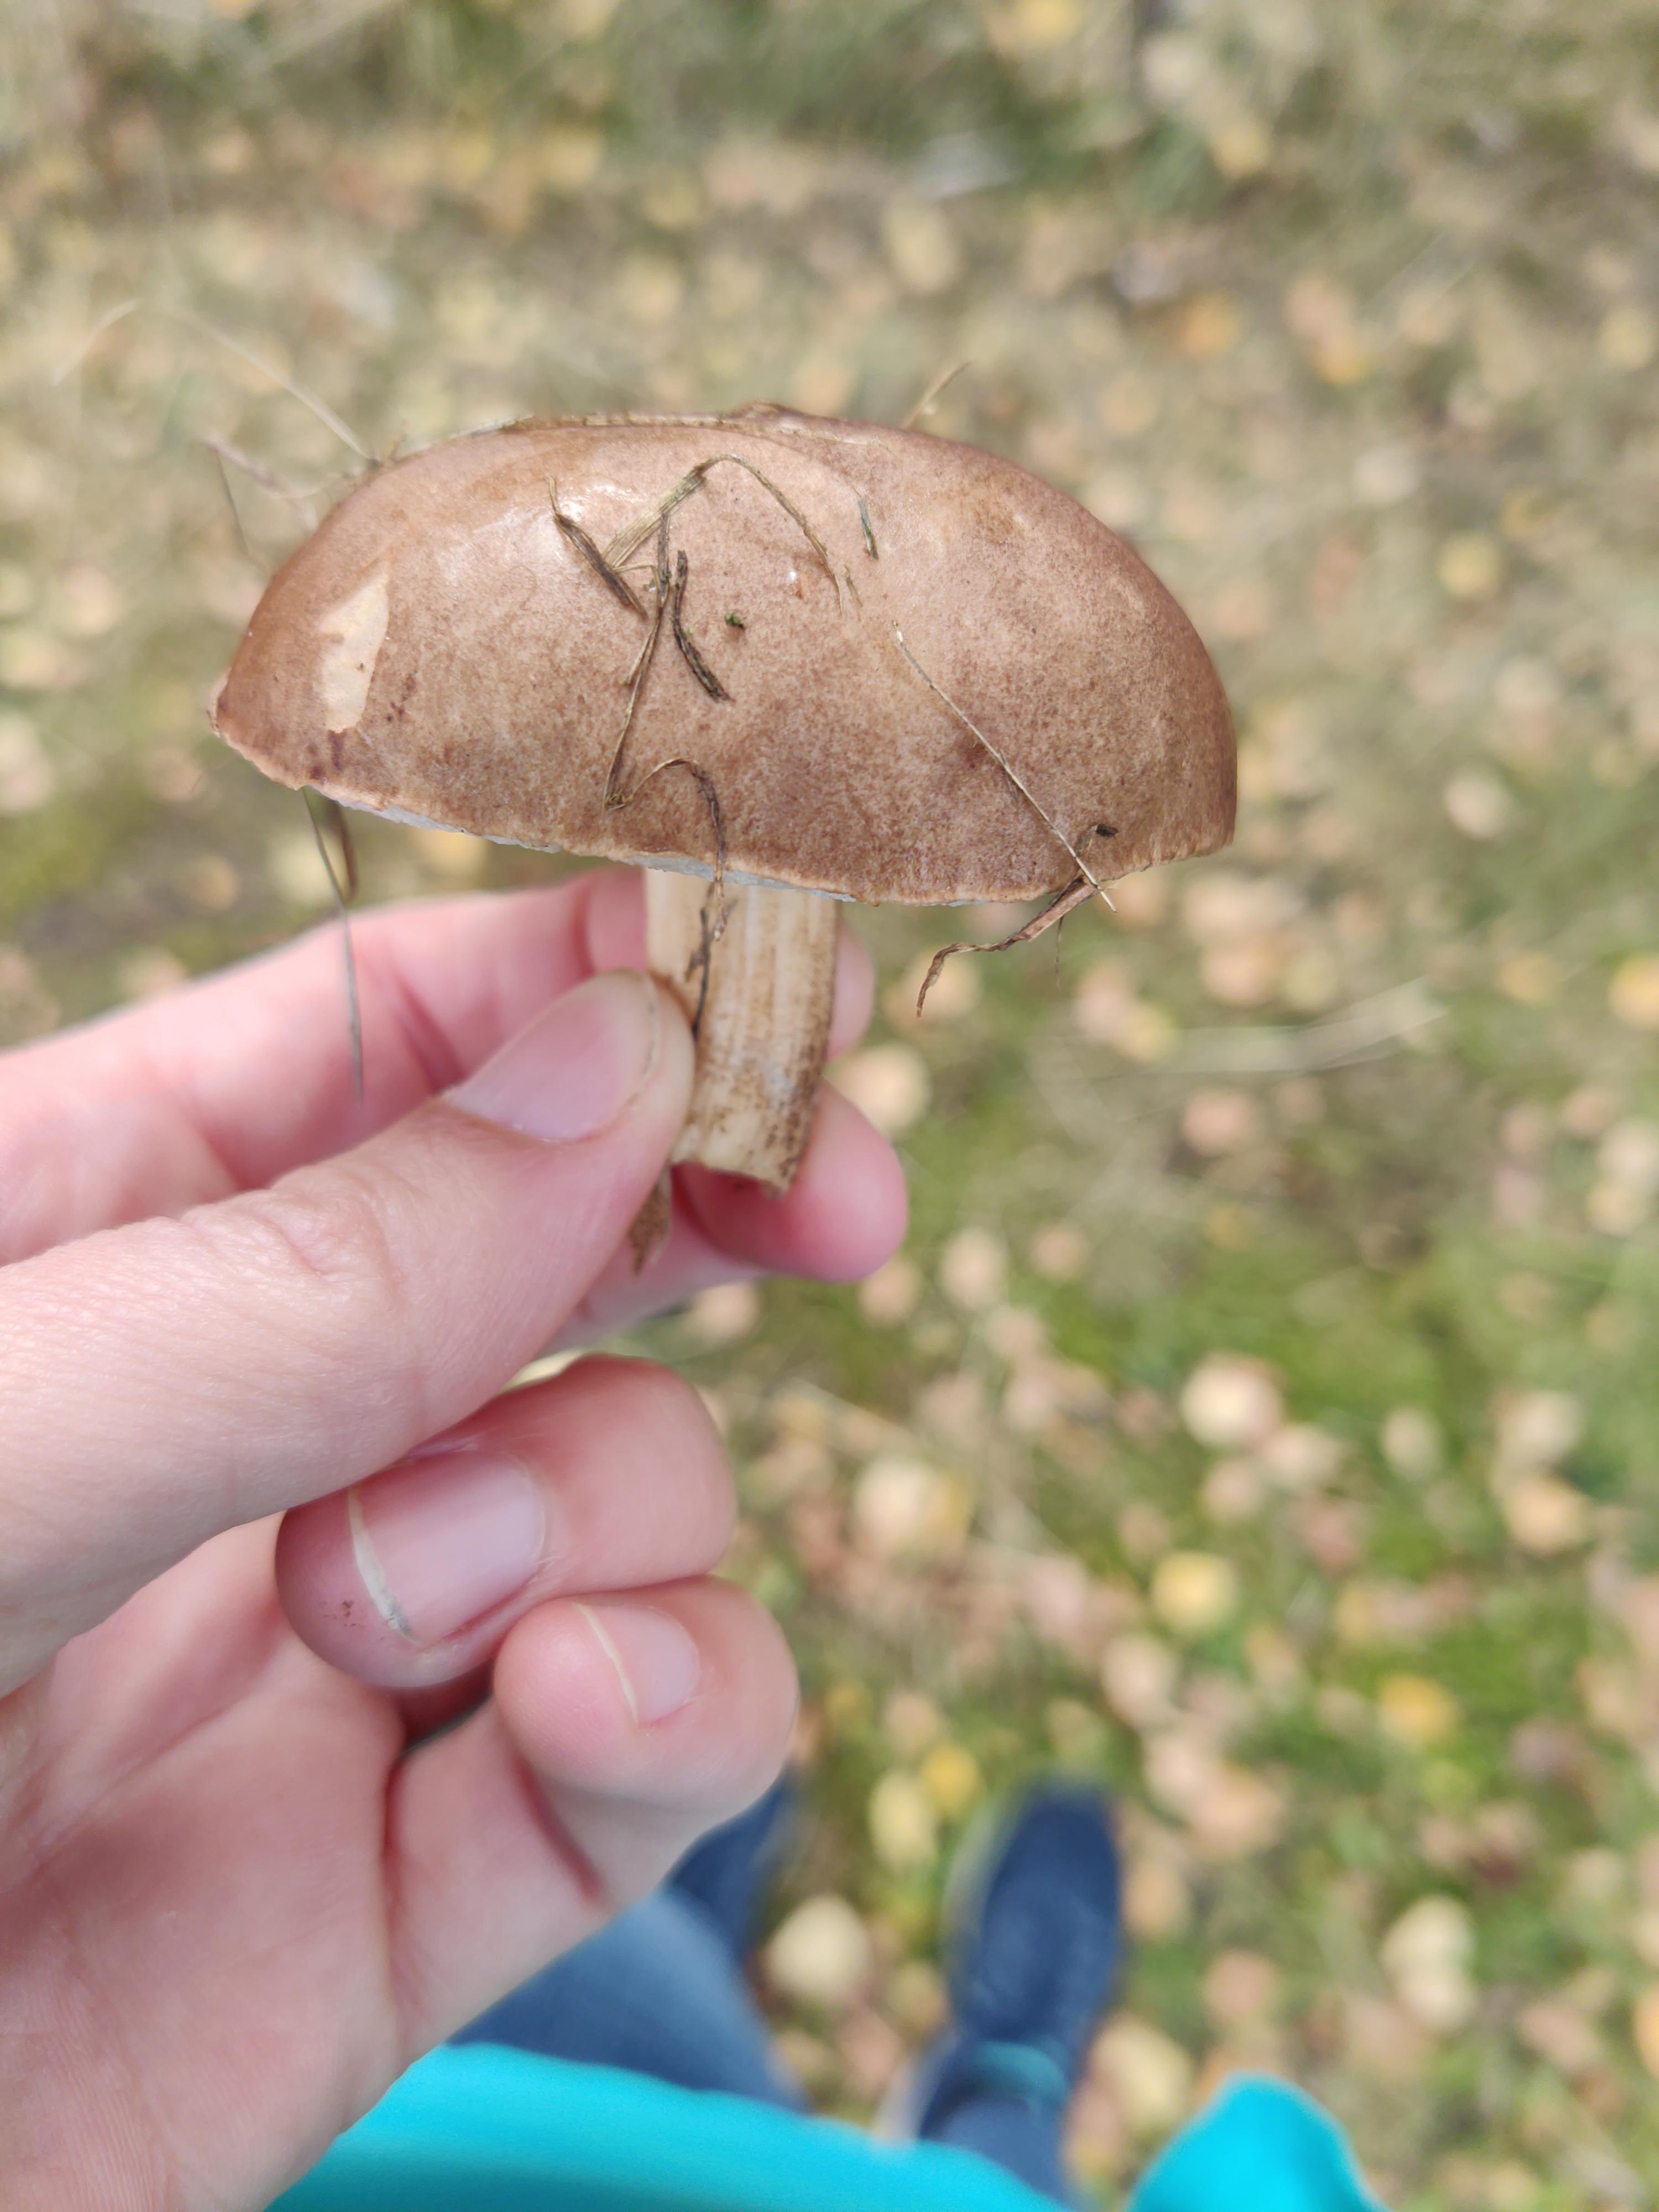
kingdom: Fungi
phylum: Basidiomycota
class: Agaricomycetes
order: Boletales
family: Boletaceae
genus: Leccinum
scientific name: Leccinum
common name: skælrørhat
